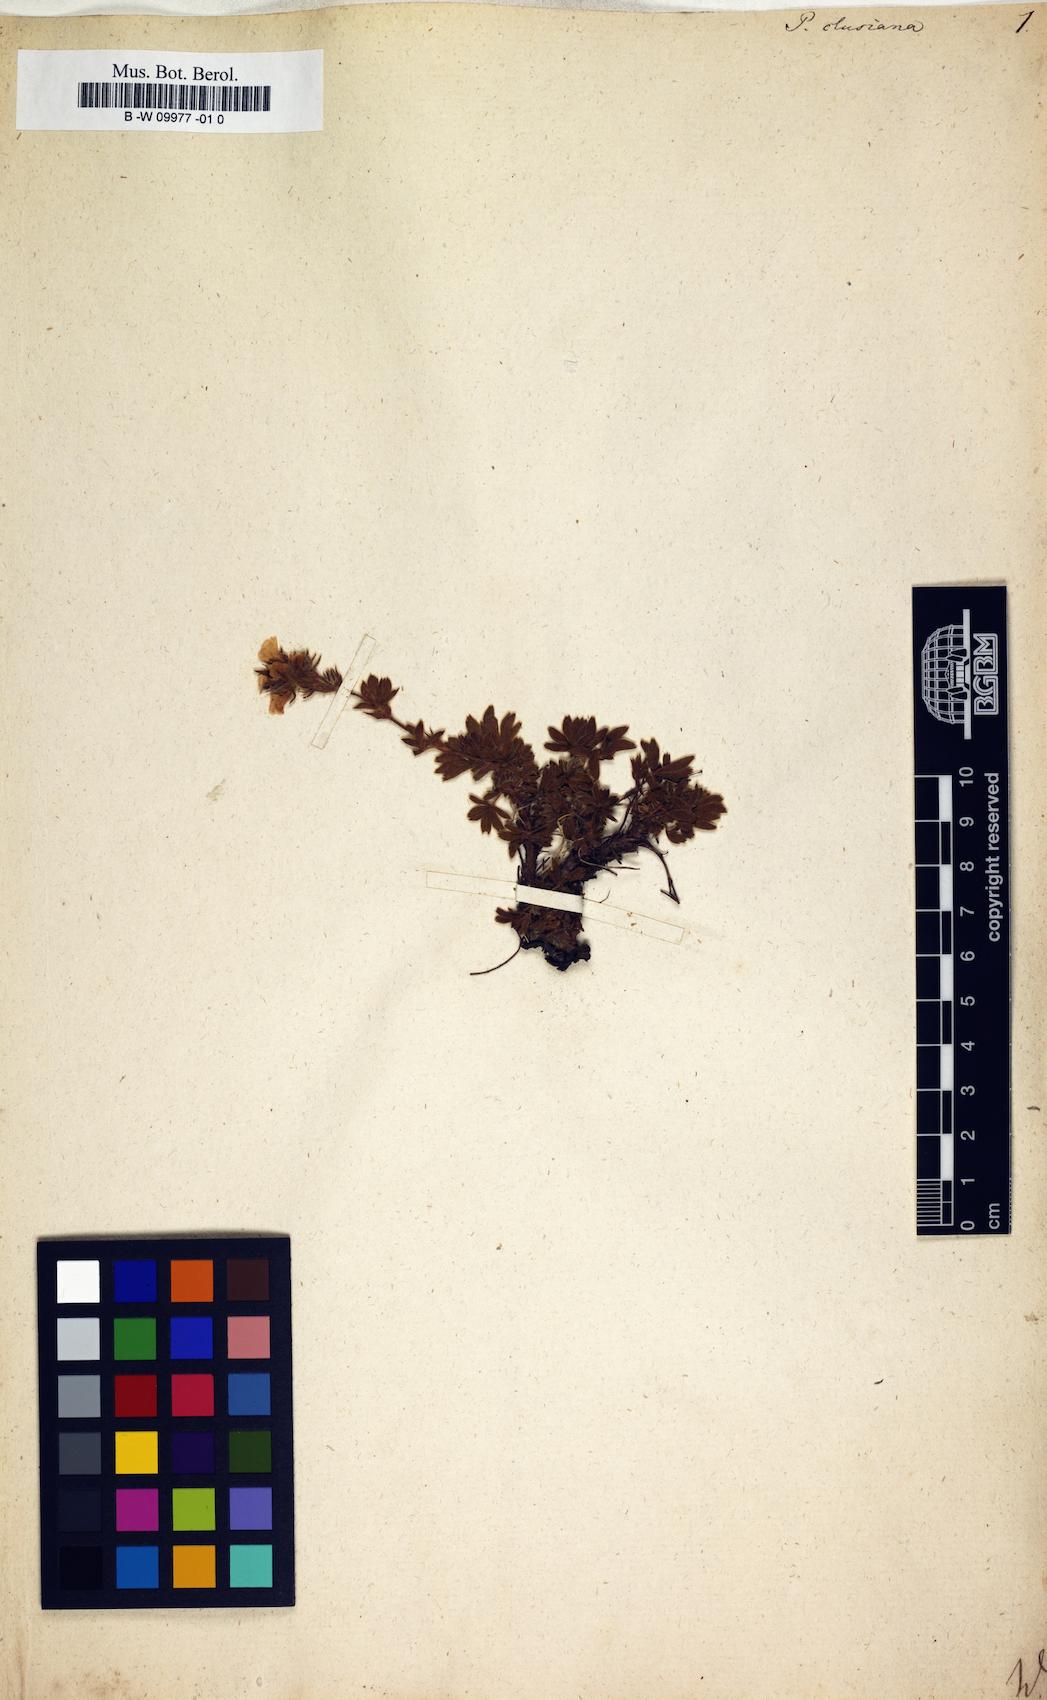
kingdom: Plantae
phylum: Tracheophyta
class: Magnoliopsida
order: Rosales
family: Rosaceae
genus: Potentilla
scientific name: Potentilla clusiana
